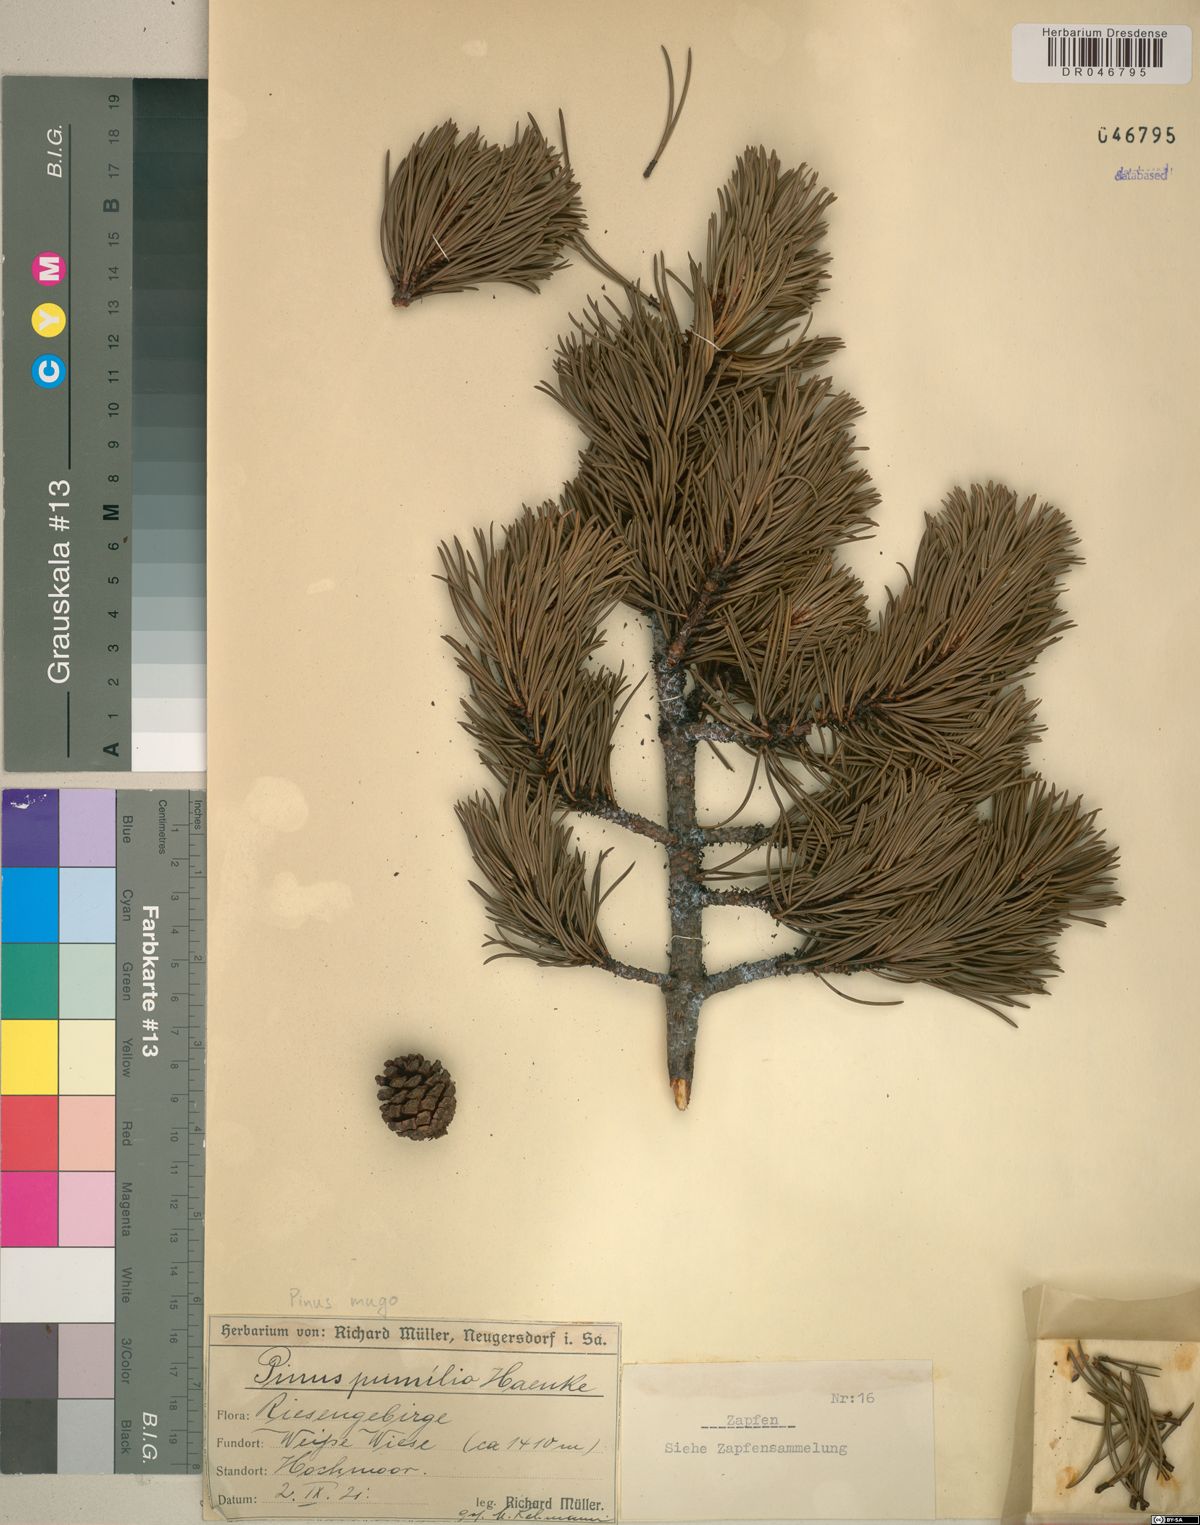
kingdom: Plantae
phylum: Tracheophyta
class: Pinopsida
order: Pinales
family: Pinaceae
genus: Pinus
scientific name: Pinus mugo
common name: Mugo pine
